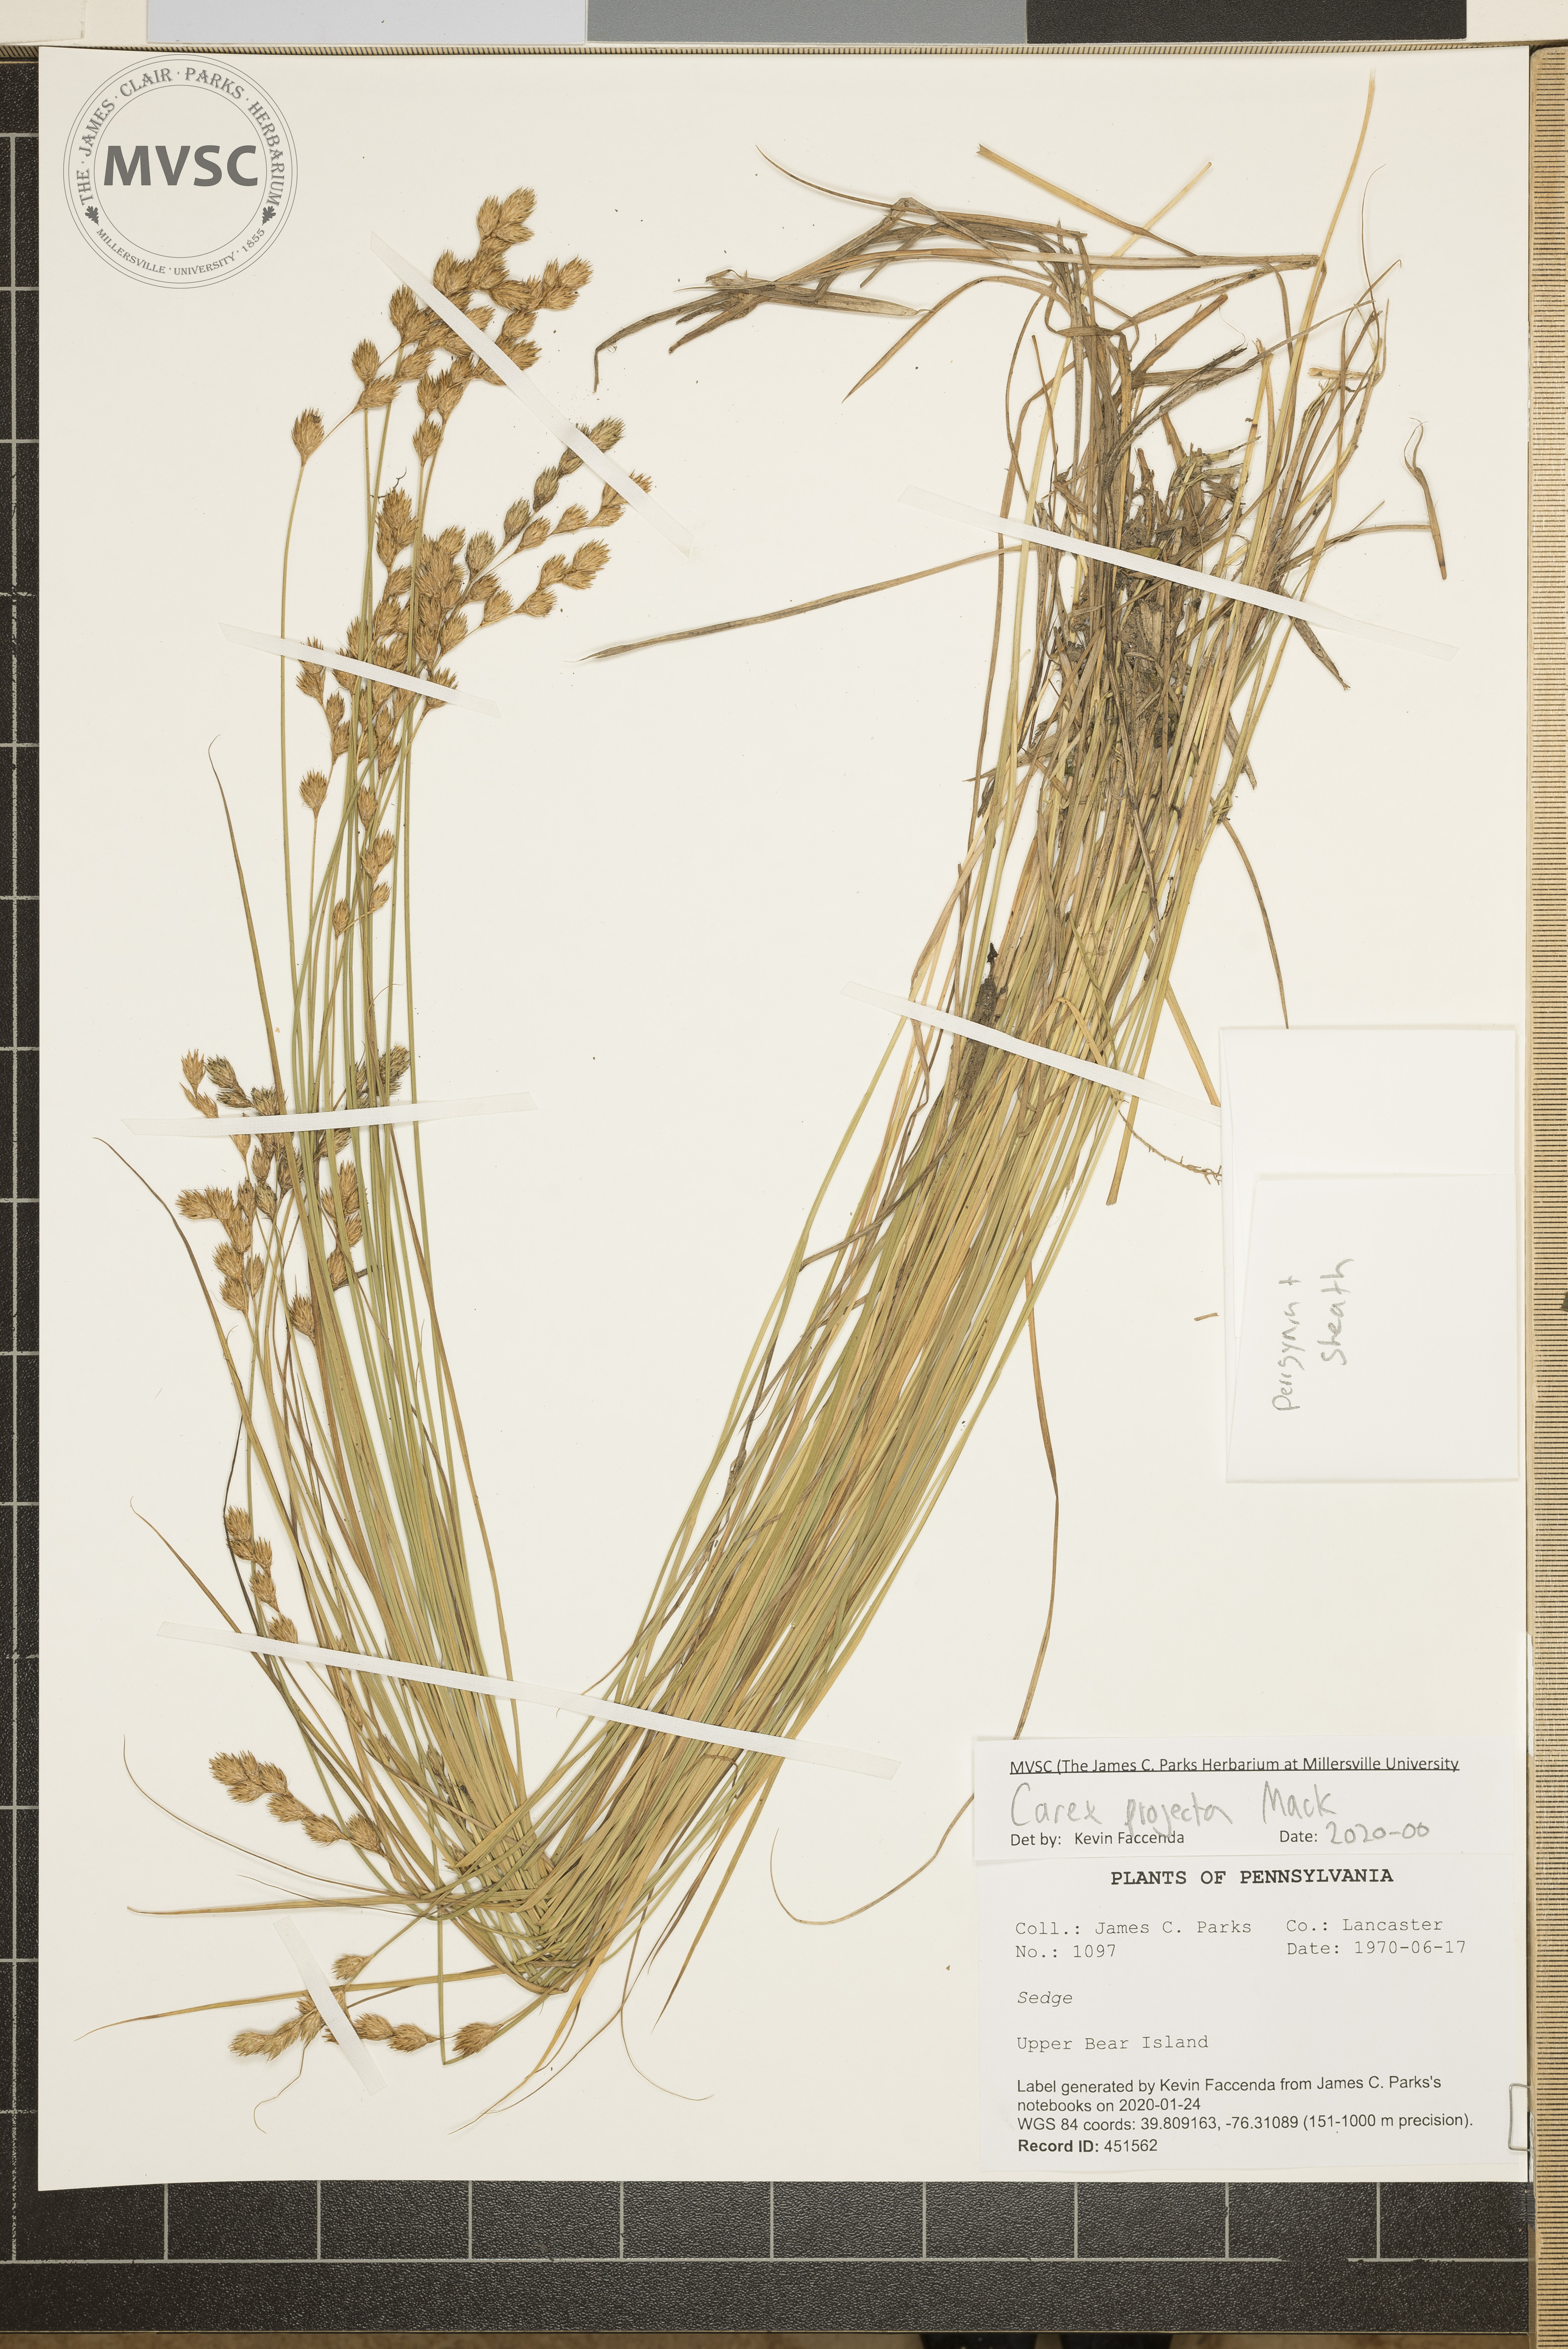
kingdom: Plantae
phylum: Tracheophyta
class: Liliopsida
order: Poales
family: Cyperaceae
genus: Carex
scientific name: Carex projecta
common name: Loose-headed oval sedge
